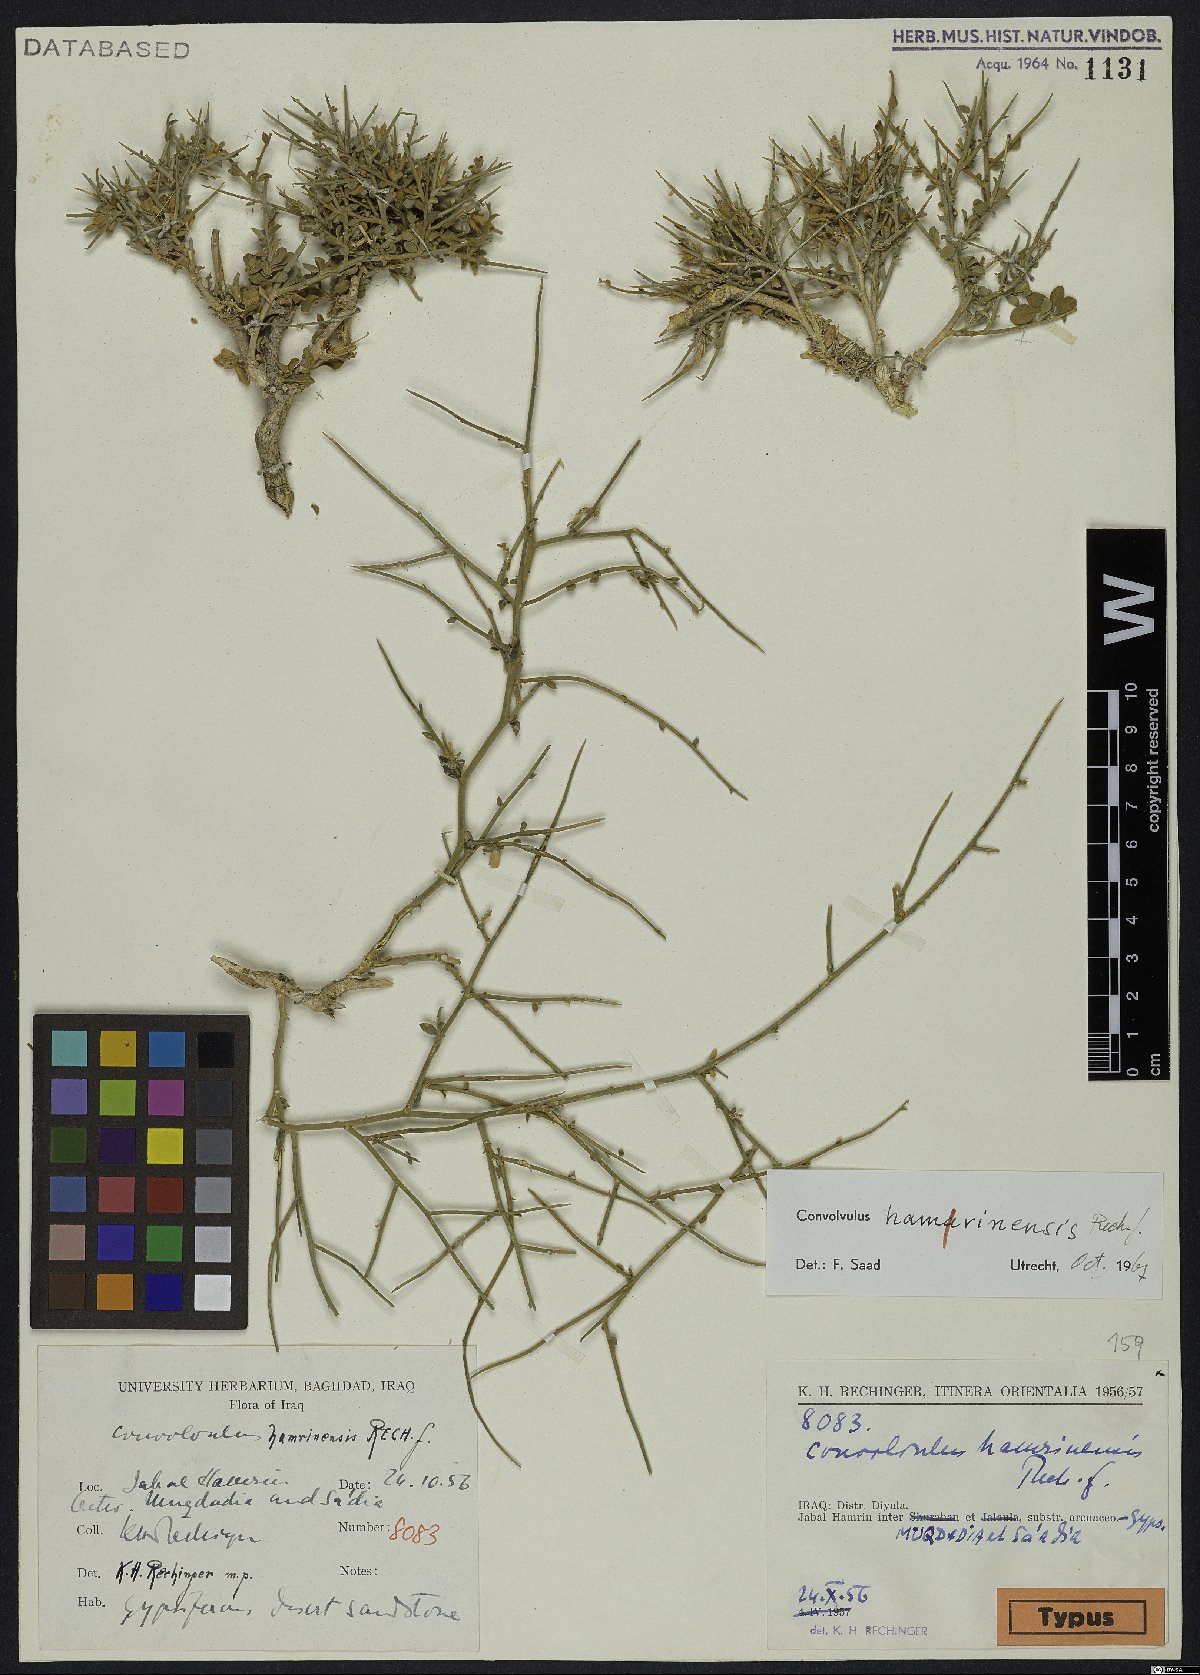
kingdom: Plantae
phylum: Tracheophyta
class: Magnoliopsida
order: Solanales
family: Convolvulaceae
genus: Convolvulus
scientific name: Convolvulus hamrinensis
